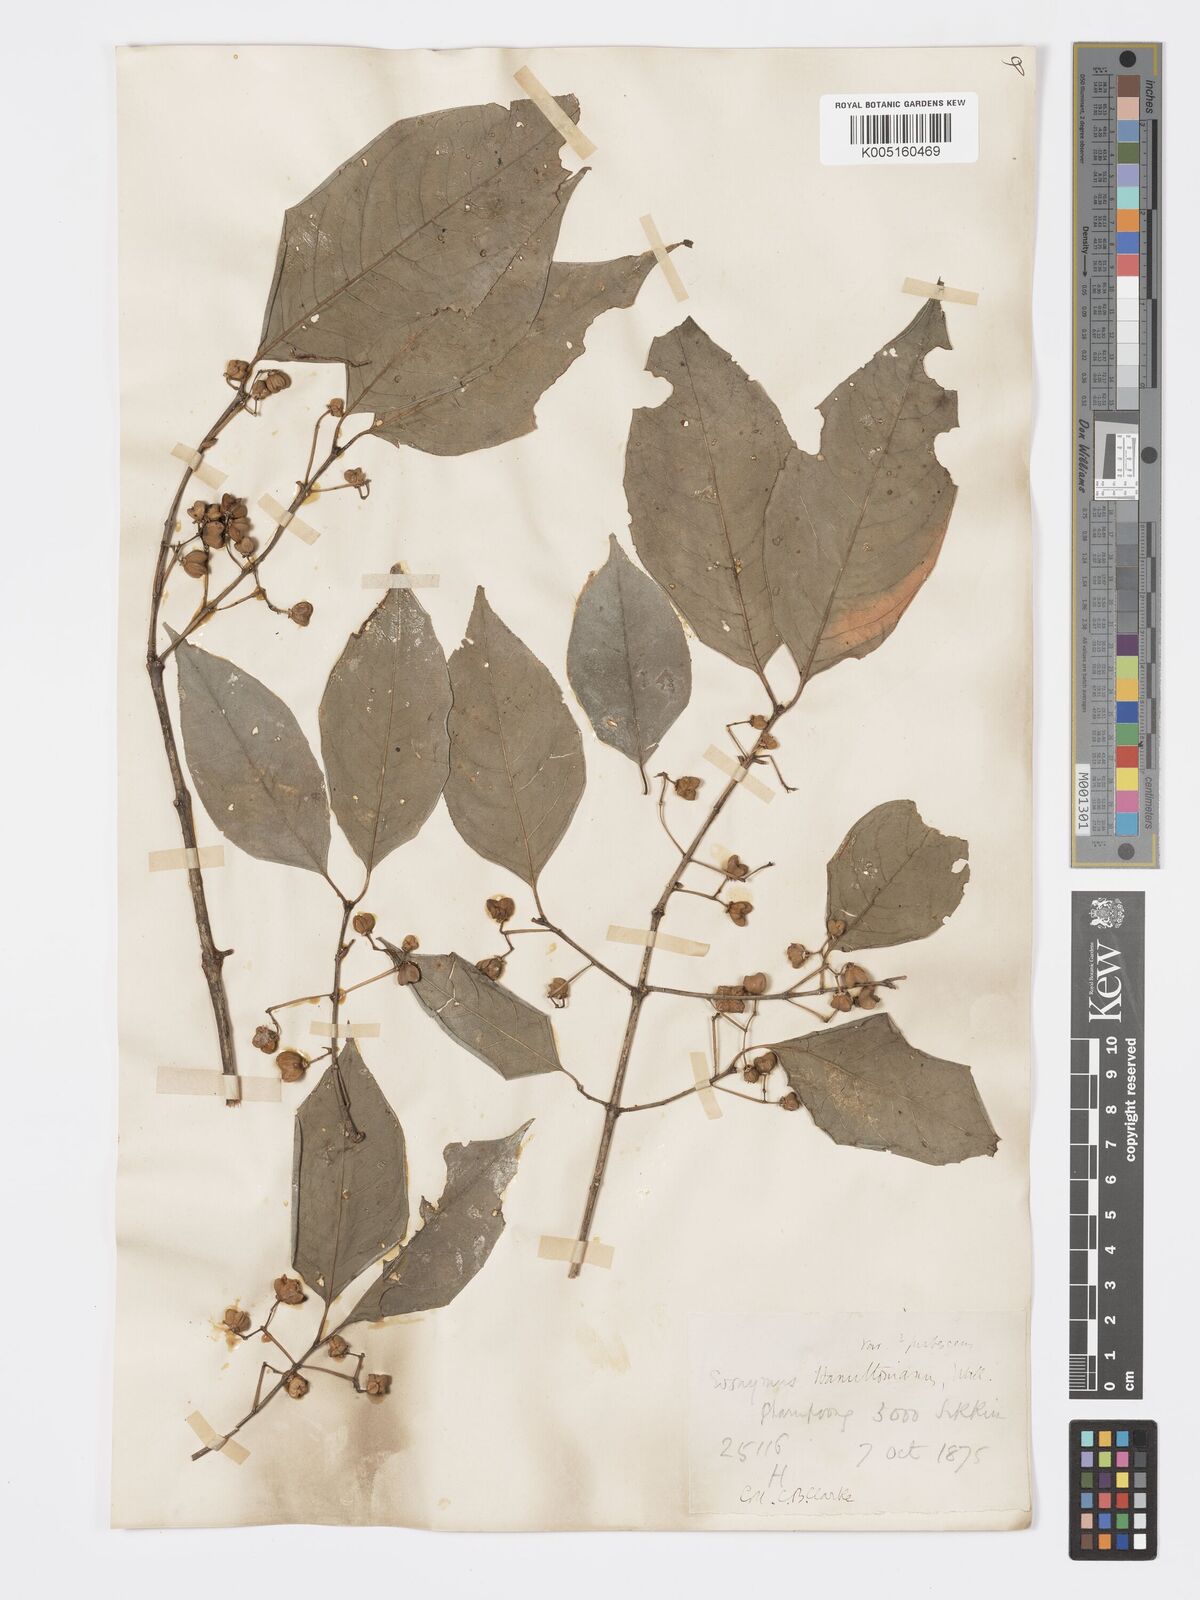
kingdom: Plantae
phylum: Tracheophyta
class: Magnoliopsida
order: Celastrales
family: Celastraceae
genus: Euonymus
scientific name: Euonymus
